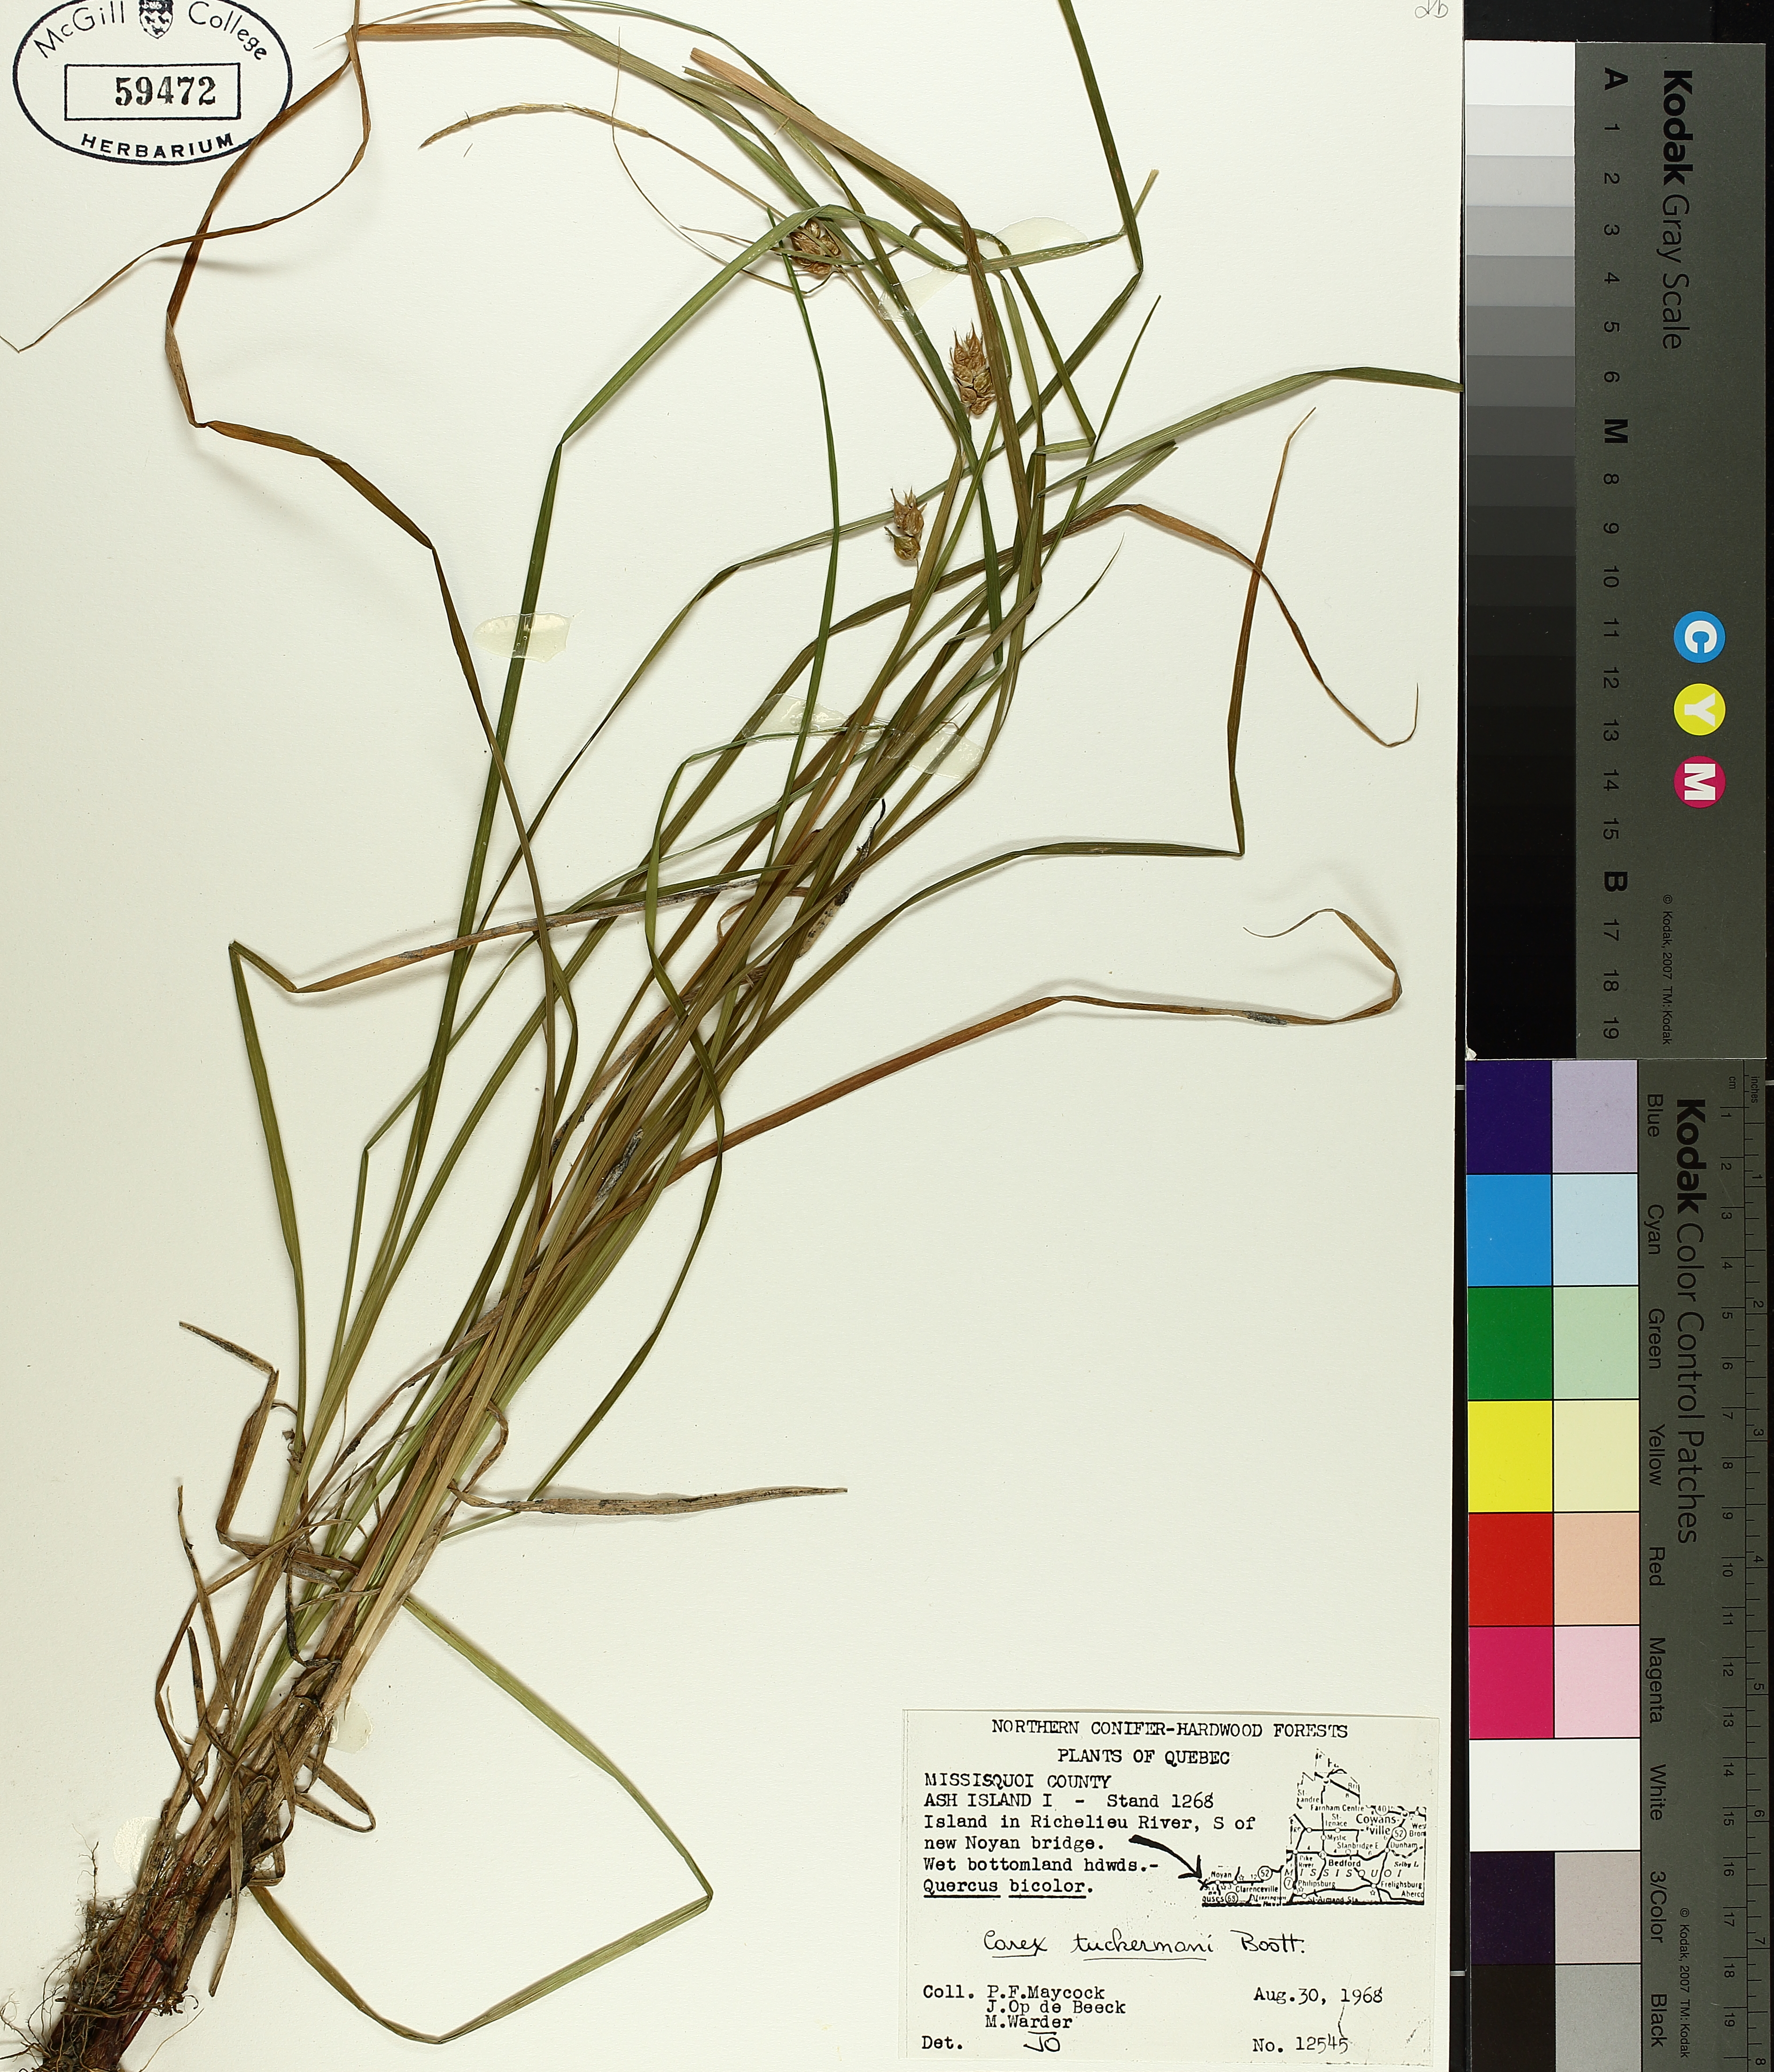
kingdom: Plantae
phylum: Tracheophyta
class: Liliopsida
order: Poales
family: Cyperaceae
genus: Carex
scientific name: Carex tuckermanii
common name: Tuckerman's sedge
